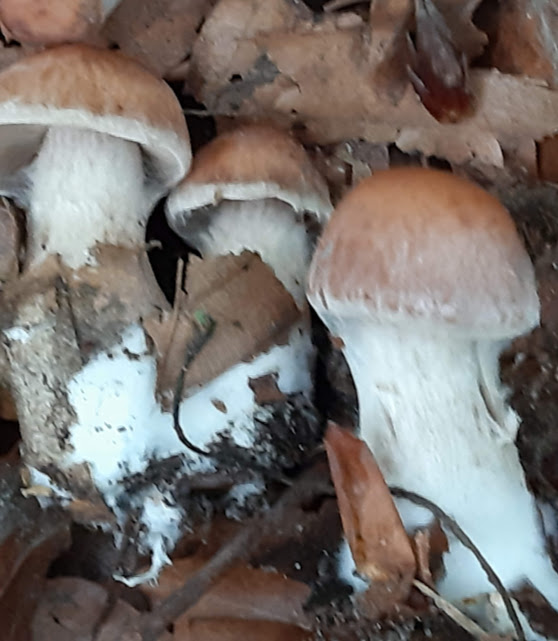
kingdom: Fungi
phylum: Basidiomycota
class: Agaricomycetes
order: Agaricales
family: Cortinariaceae
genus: Cortinarius
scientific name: Cortinarius
